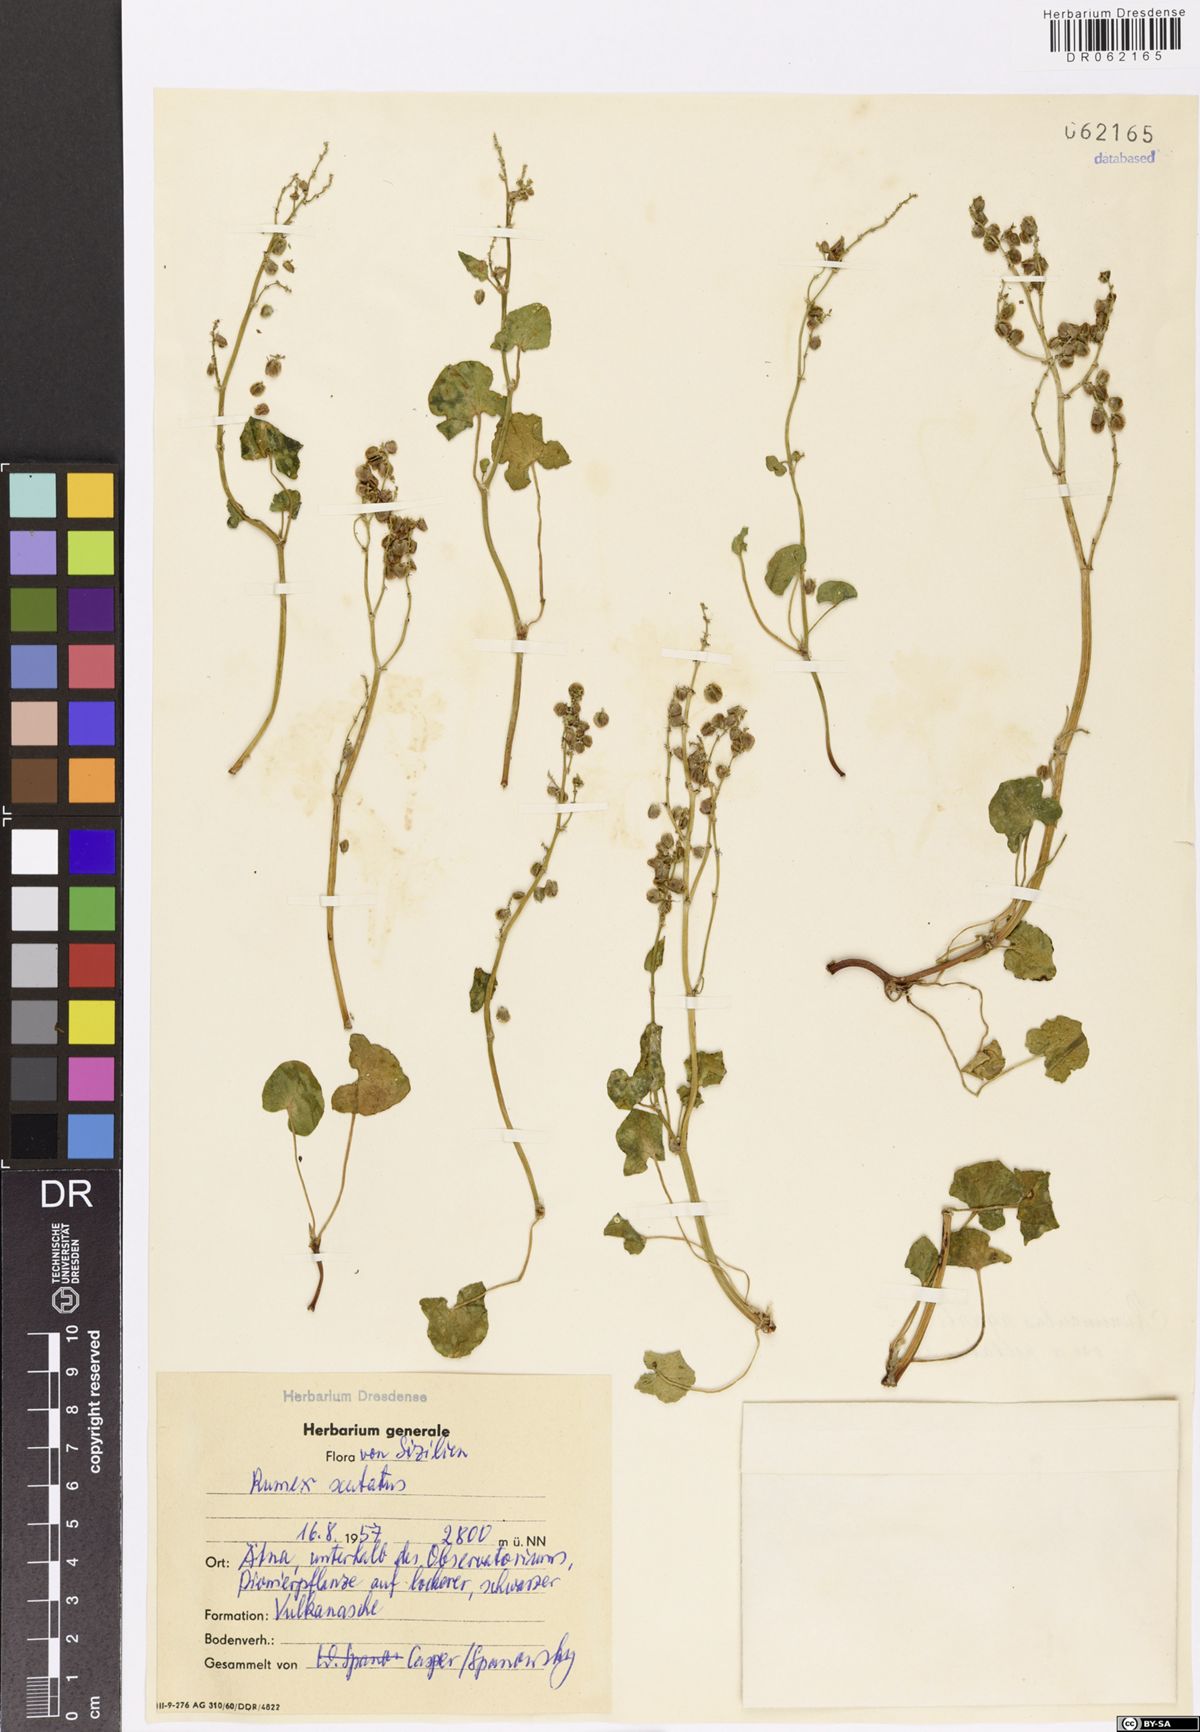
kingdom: Plantae
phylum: Tracheophyta
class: Magnoliopsida
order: Caryophyllales
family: Polygonaceae
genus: Rumex
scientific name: Rumex scutatus
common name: French sorrel
